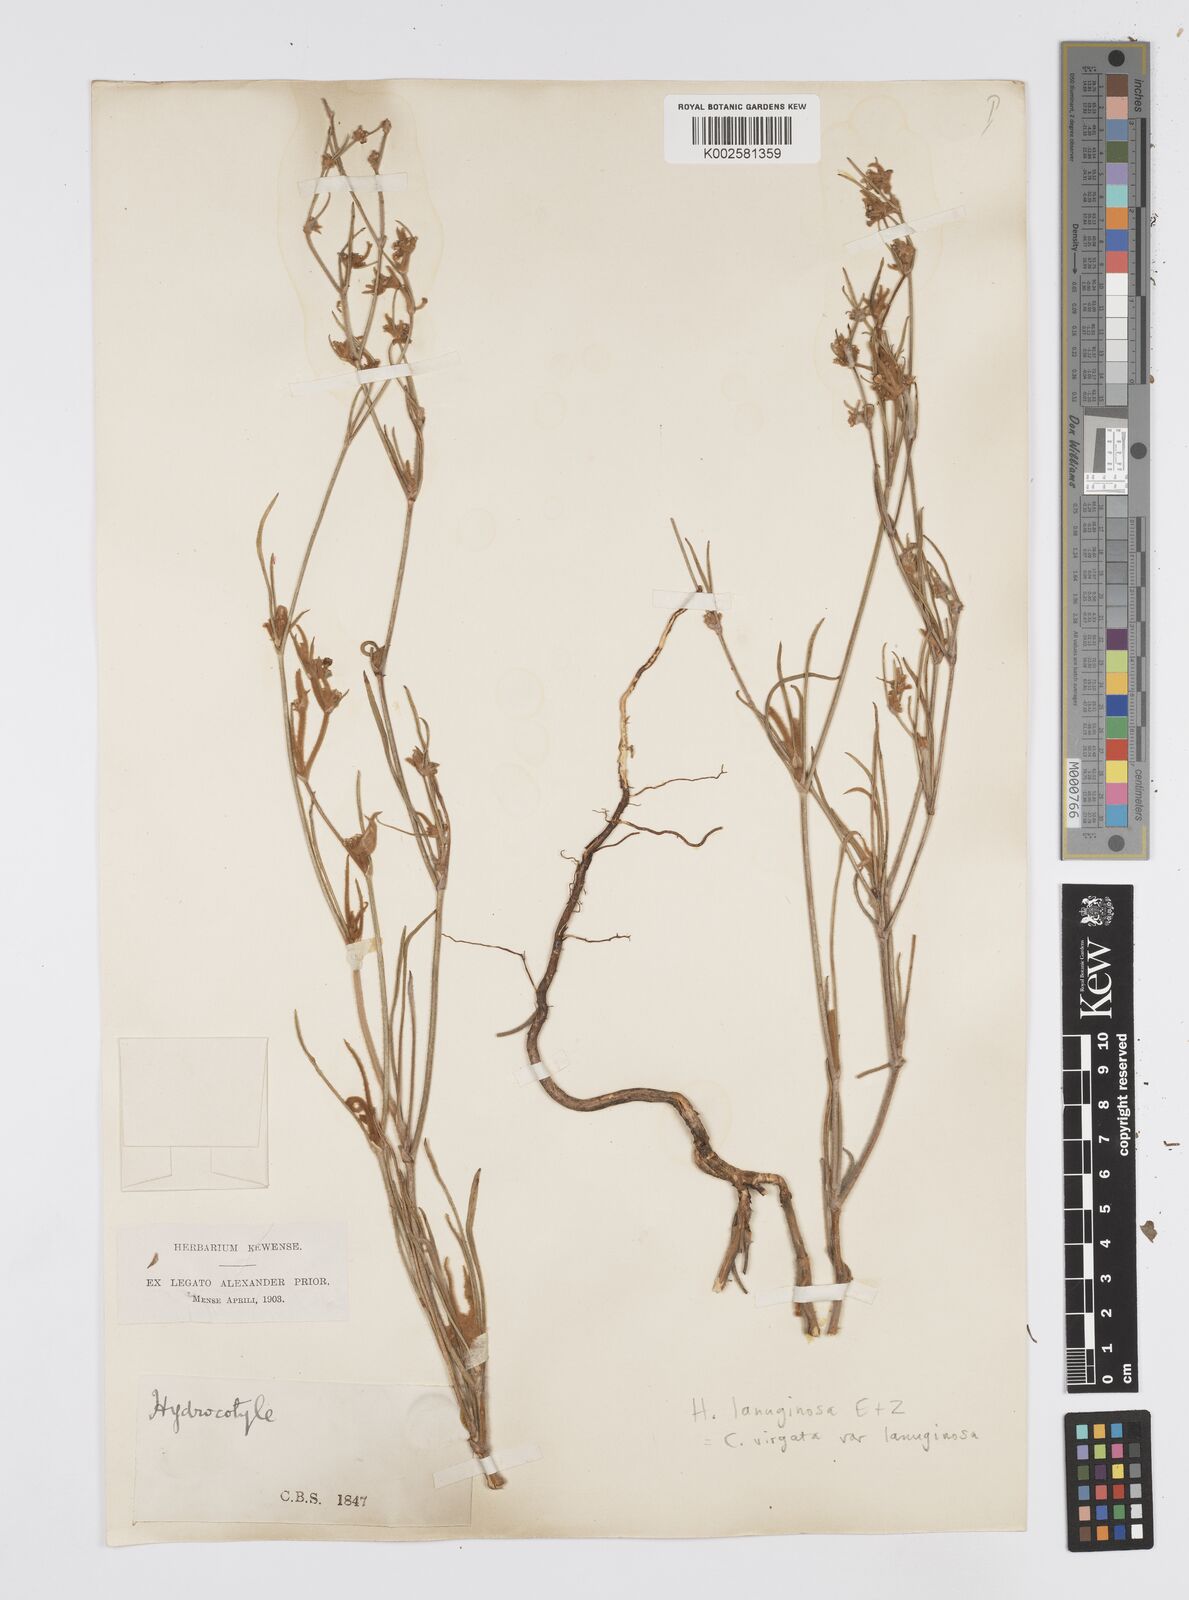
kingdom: Plantae
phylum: Tracheophyta
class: Magnoliopsida
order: Apiales
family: Apiaceae
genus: Centella
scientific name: Centella
